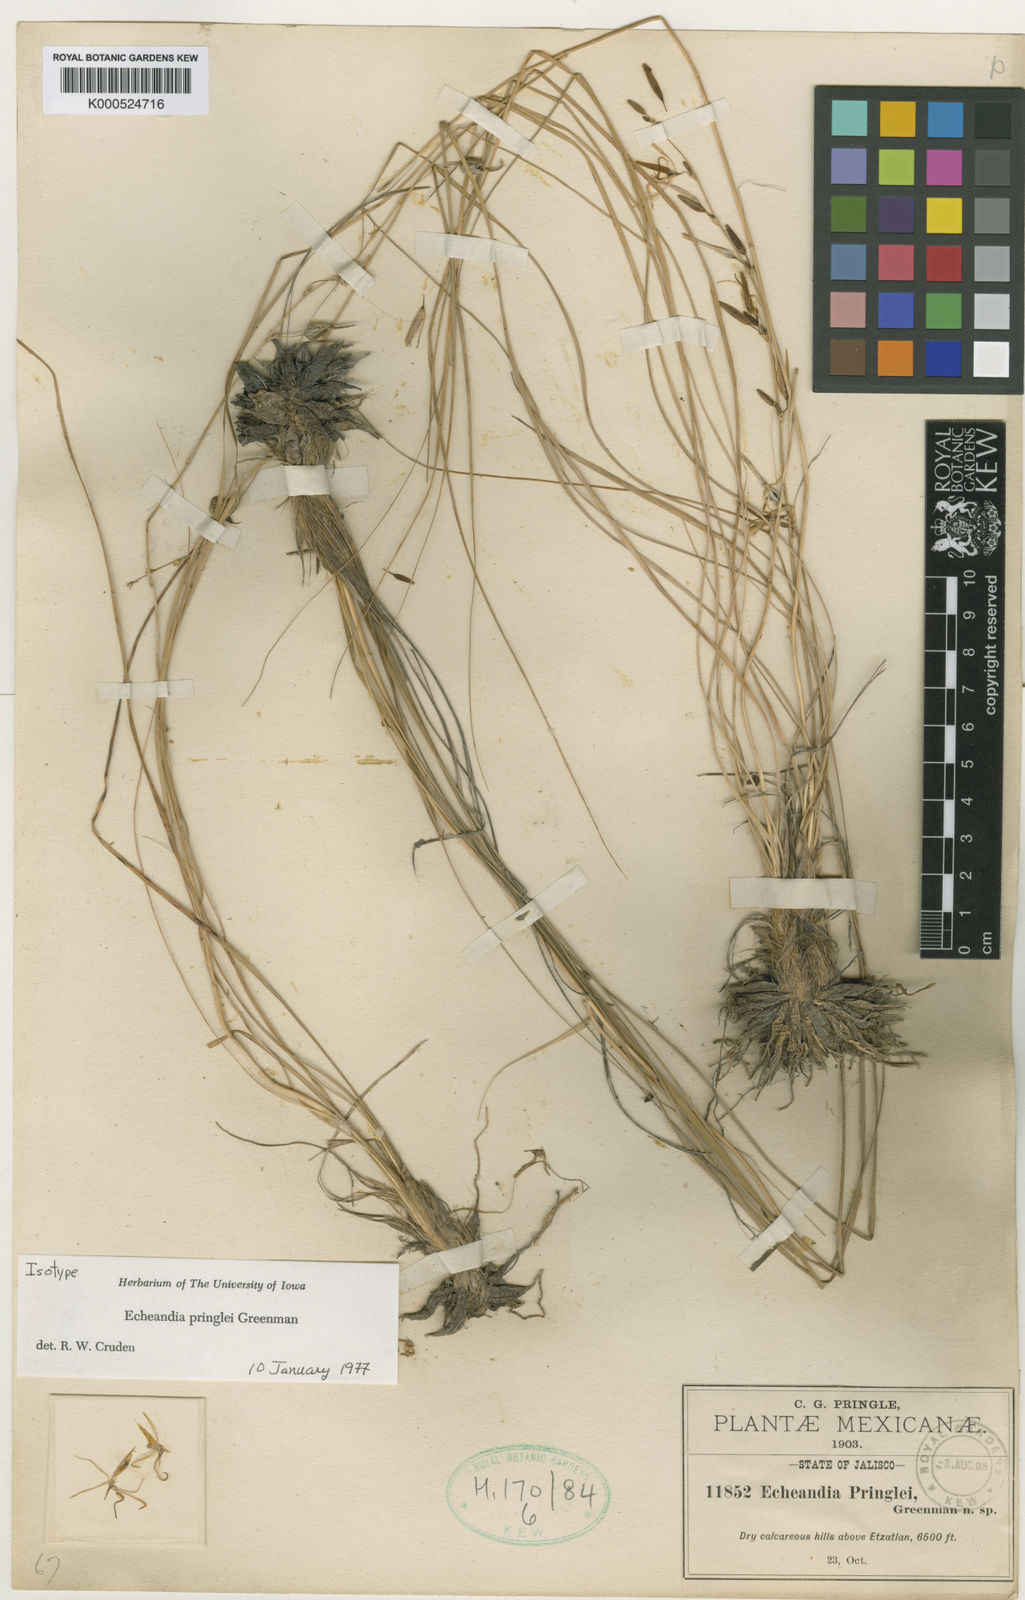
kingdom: Plantae
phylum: Tracheophyta
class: Liliopsida
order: Asparagales
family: Asparagaceae
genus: Echeandia
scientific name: Echeandia flexuosa
